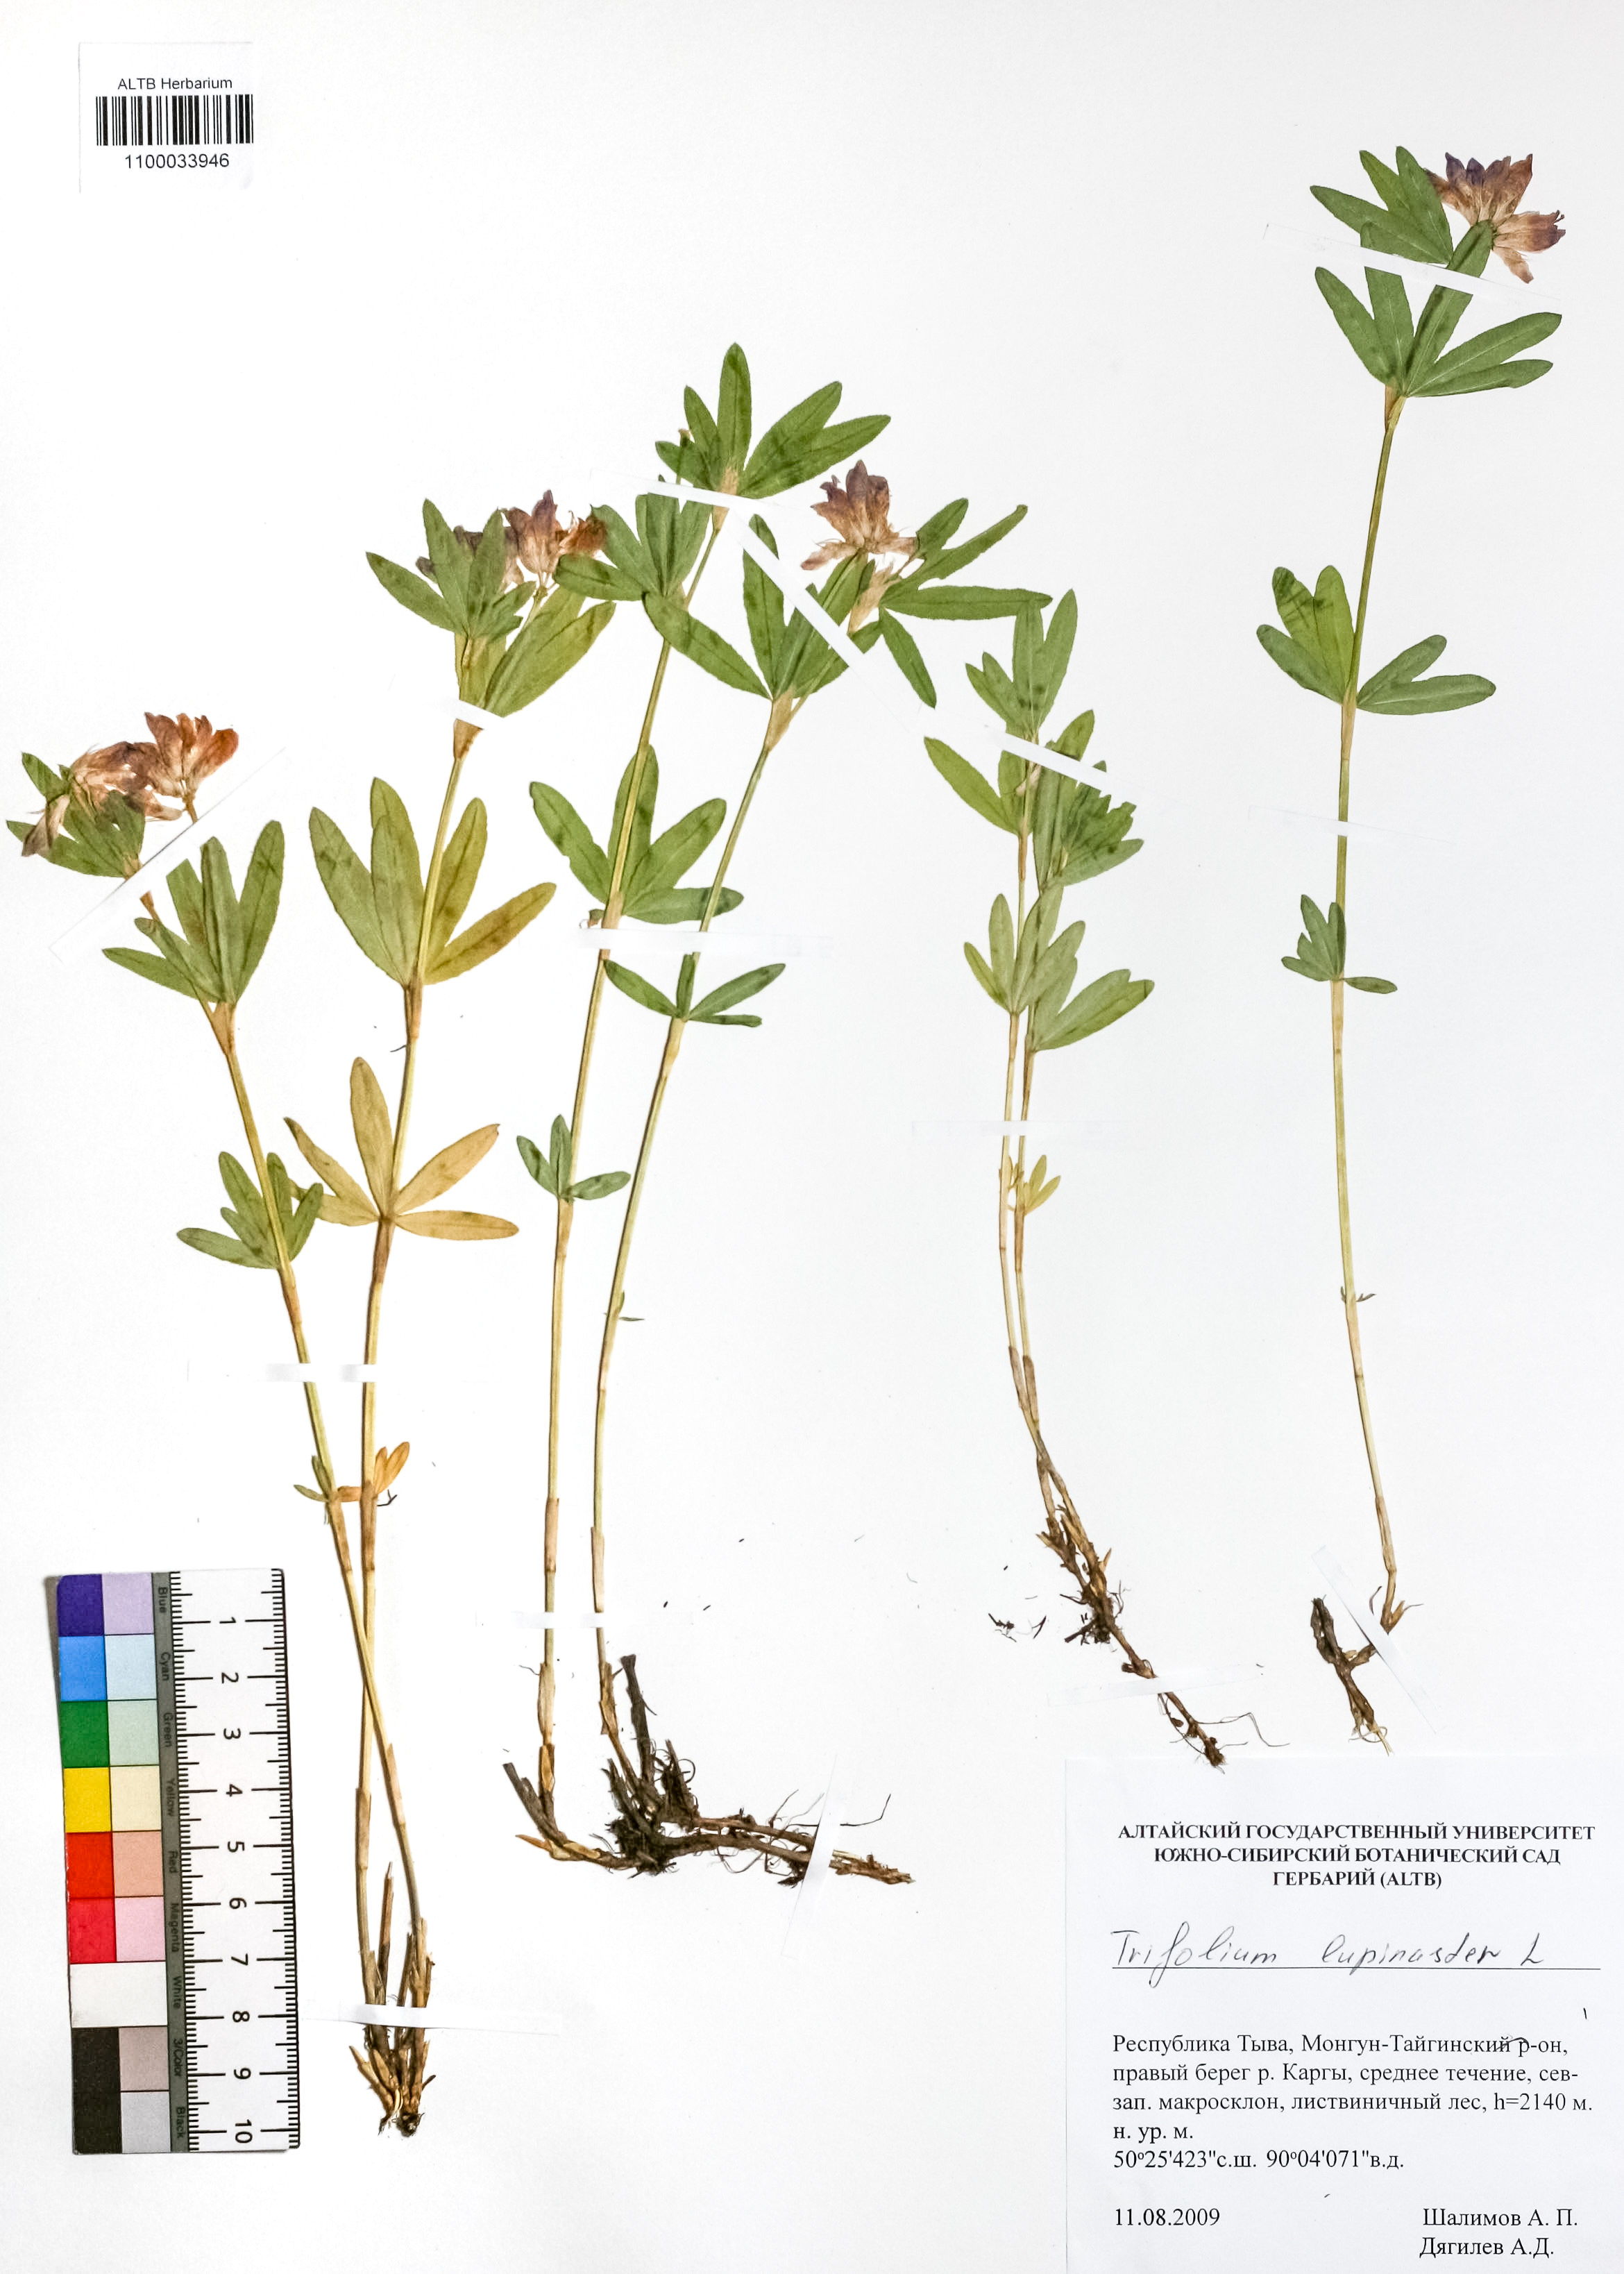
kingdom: Plantae
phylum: Tracheophyta
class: Magnoliopsida
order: Fabales
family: Fabaceae
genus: Trifolium
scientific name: Trifolium lupinaster
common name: Lupine clover
